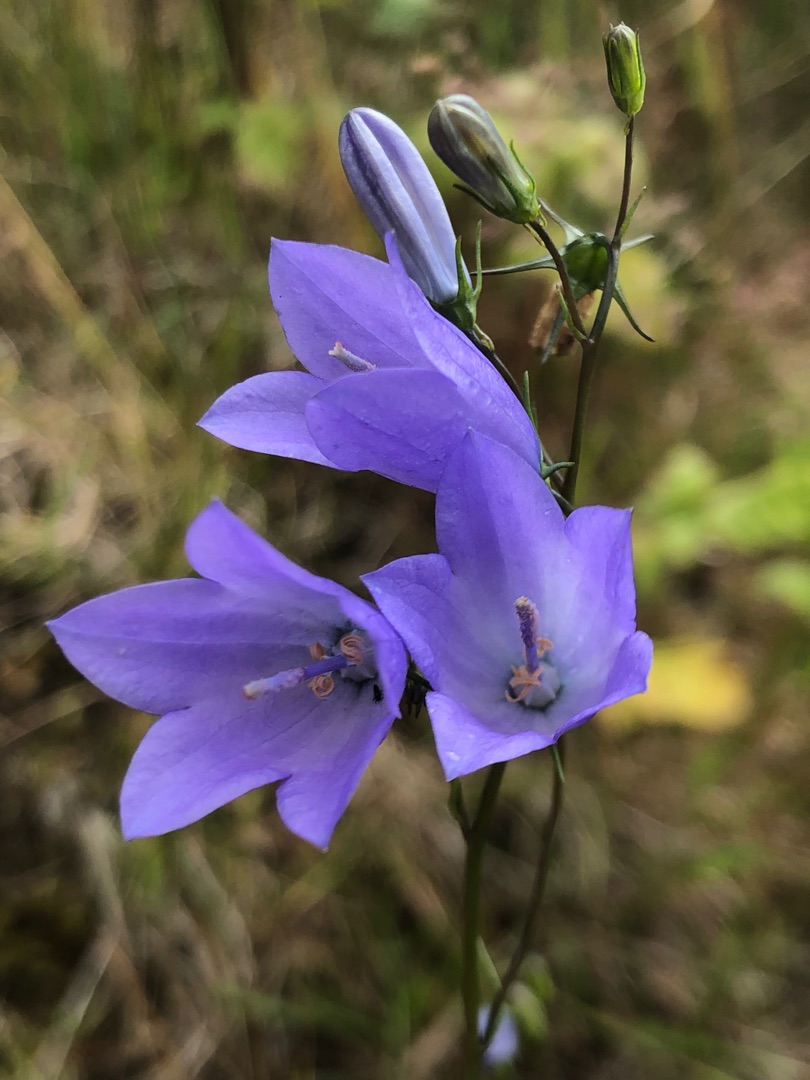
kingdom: Plantae
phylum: Tracheophyta
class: Magnoliopsida
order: Asterales
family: Campanulaceae
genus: Campanula
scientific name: Campanula rotundifolia
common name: Liden klokke
